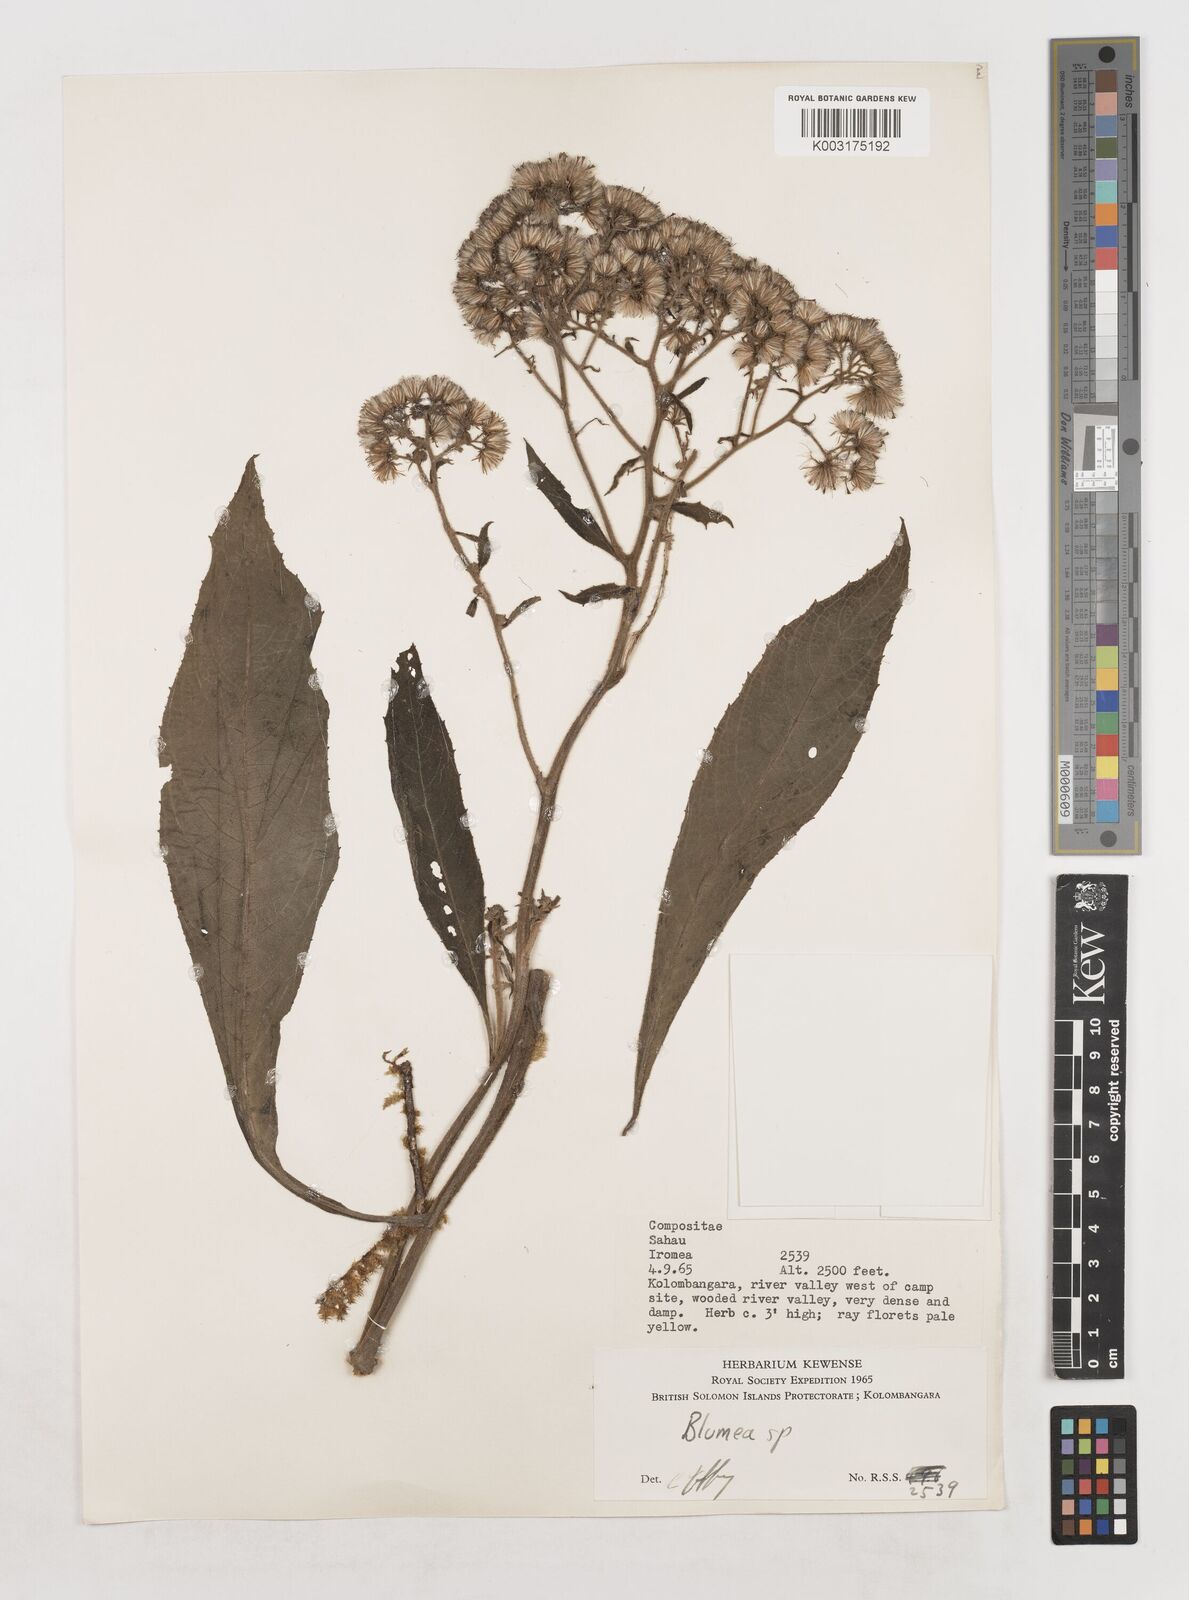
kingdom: Plantae
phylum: Tracheophyta
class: Magnoliopsida
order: Asterales
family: Asteraceae
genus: Blumea
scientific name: Blumea
